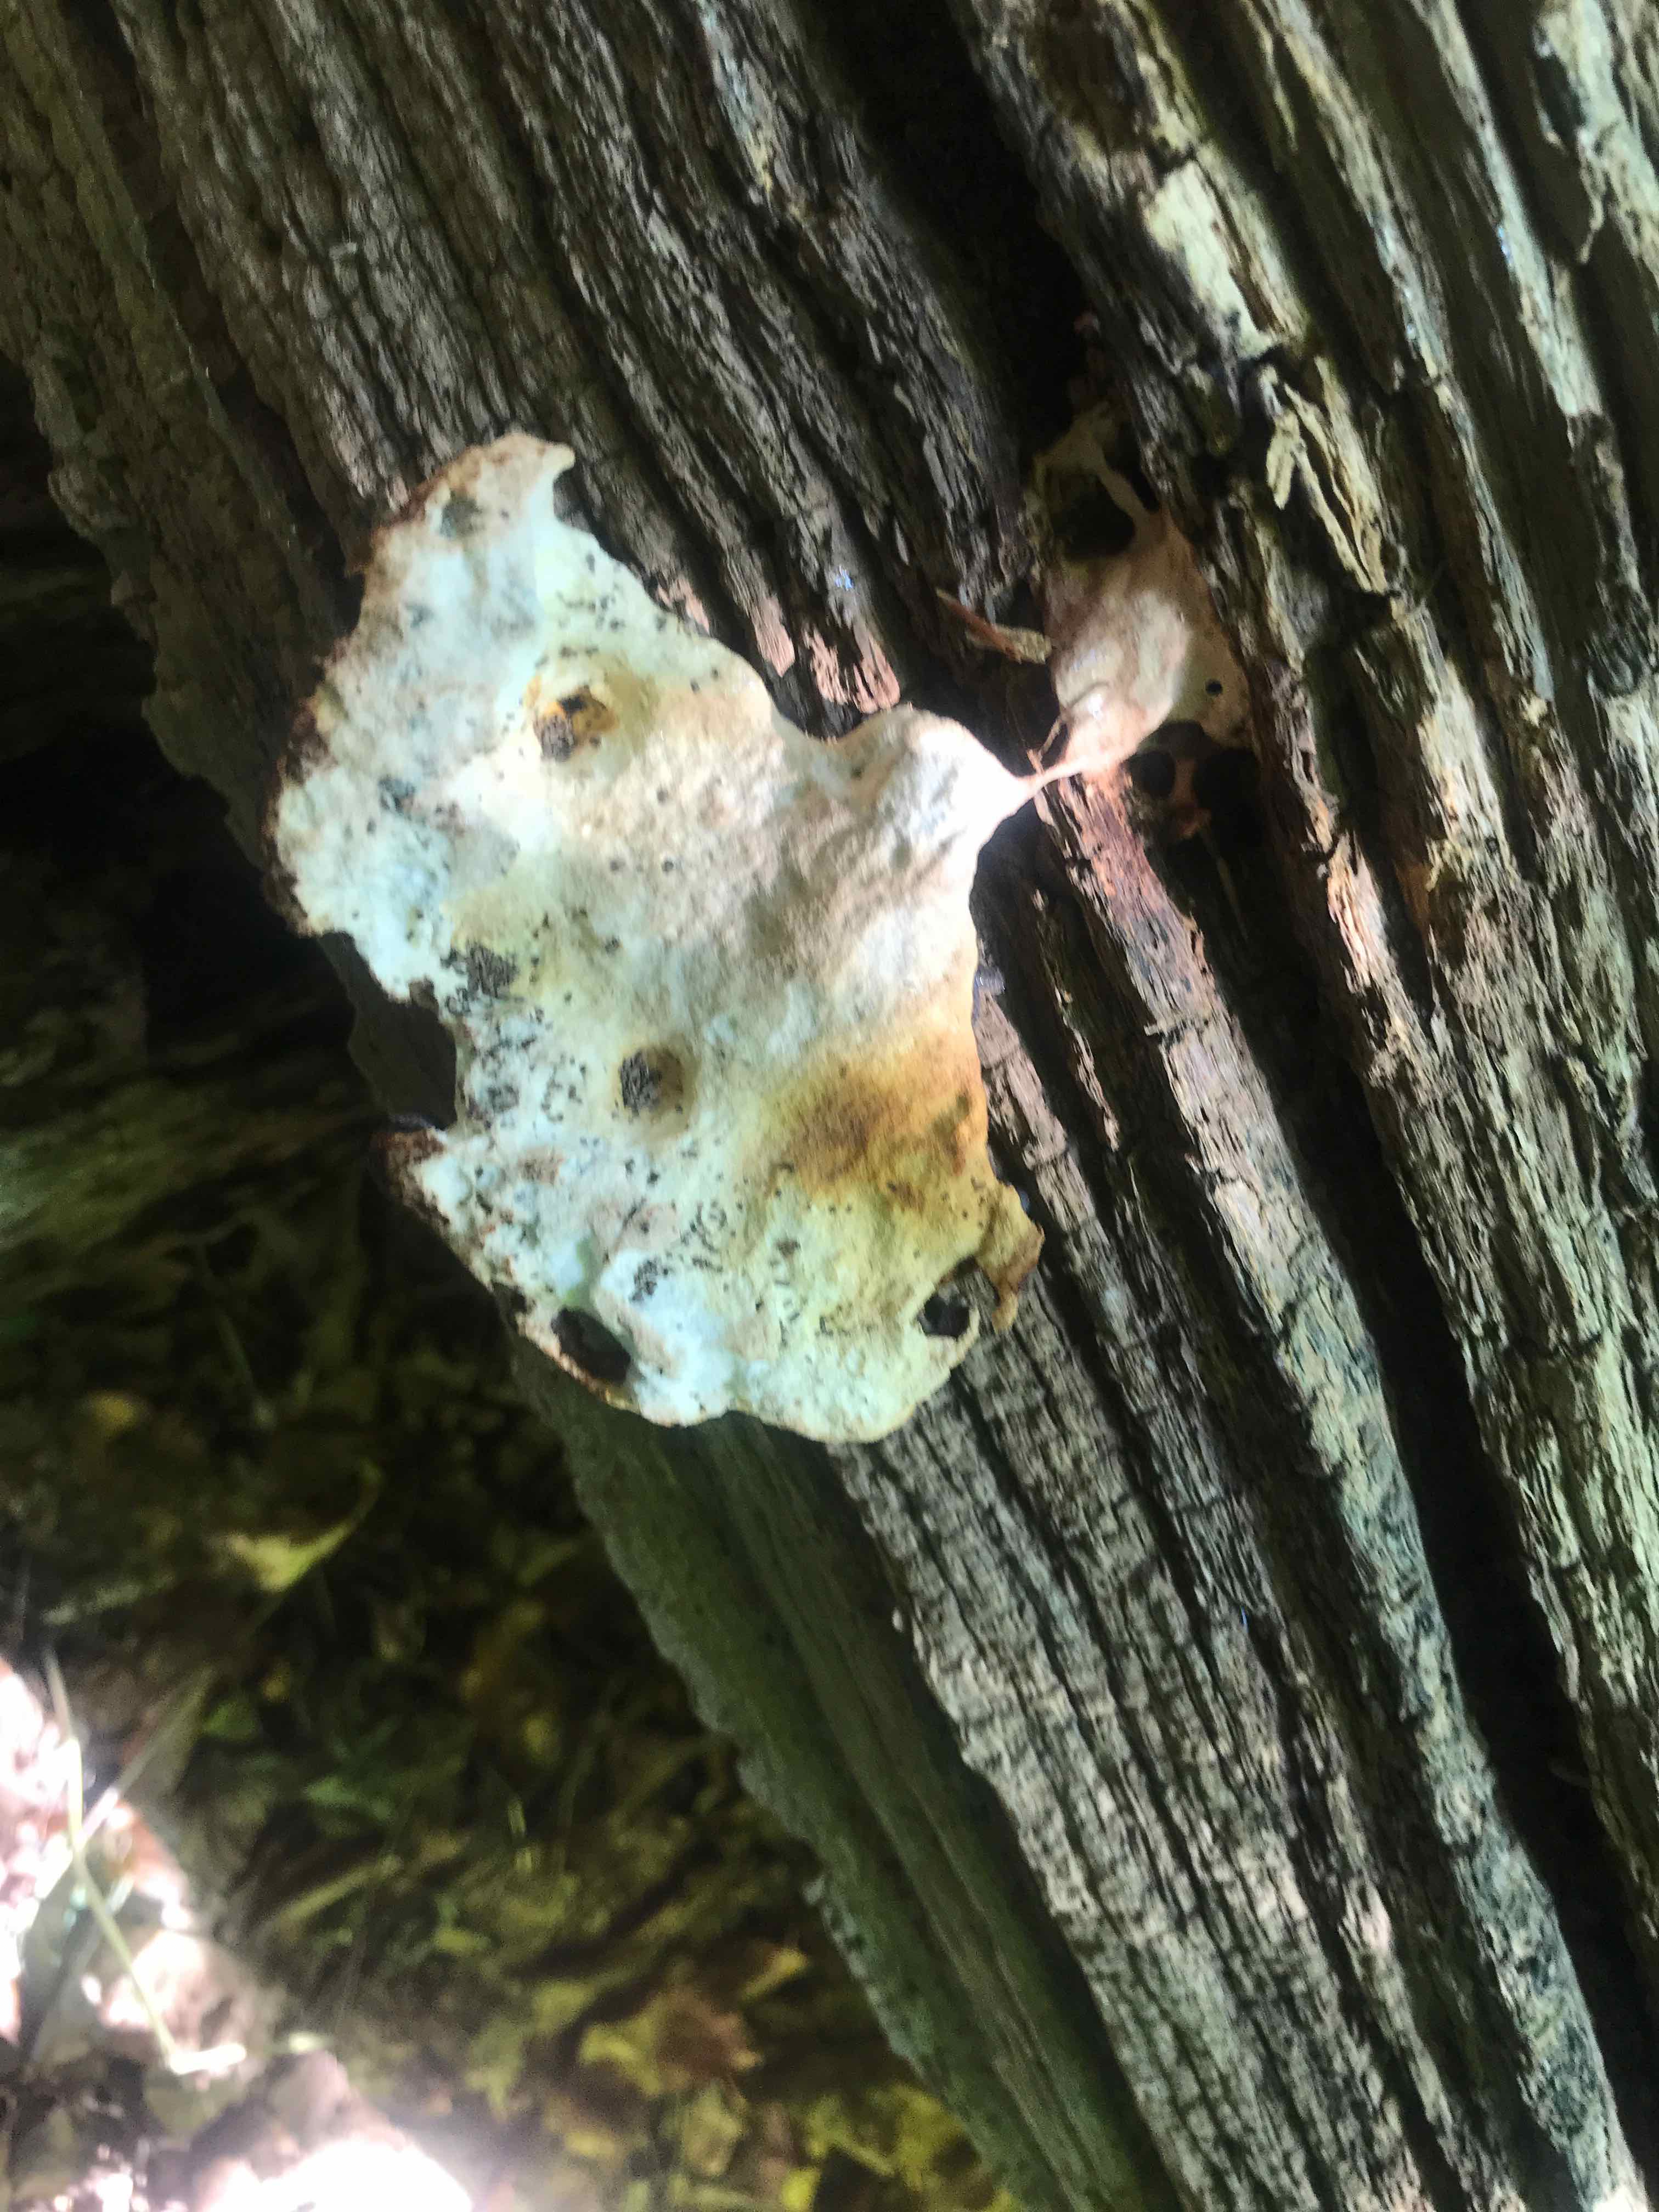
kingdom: Fungi
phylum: Basidiomycota
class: Agaricomycetes
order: Polyporales
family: Fomitopsidaceae
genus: Buglossoporus
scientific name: Buglossoporus quercinus
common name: egetunge
